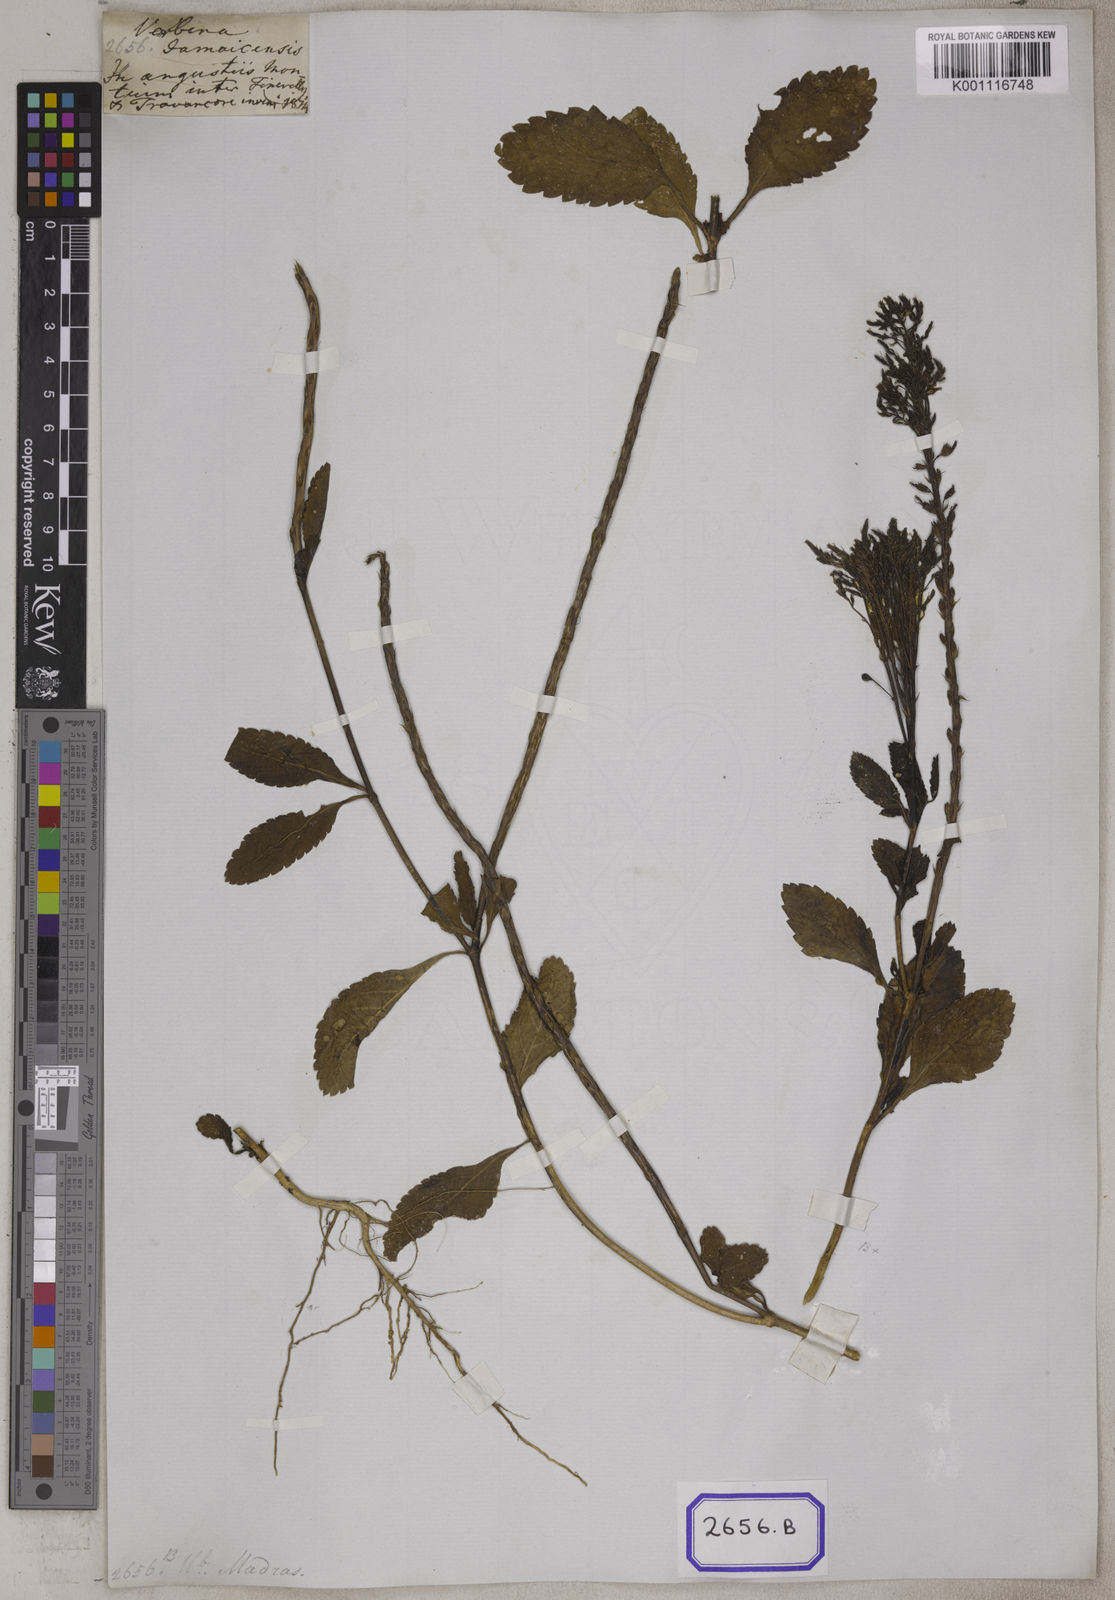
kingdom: Plantae
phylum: Tracheophyta
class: Magnoliopsida
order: Lamiales
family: Verbenaceae
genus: Stachytarpheta
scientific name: Stachytarpheta indica
